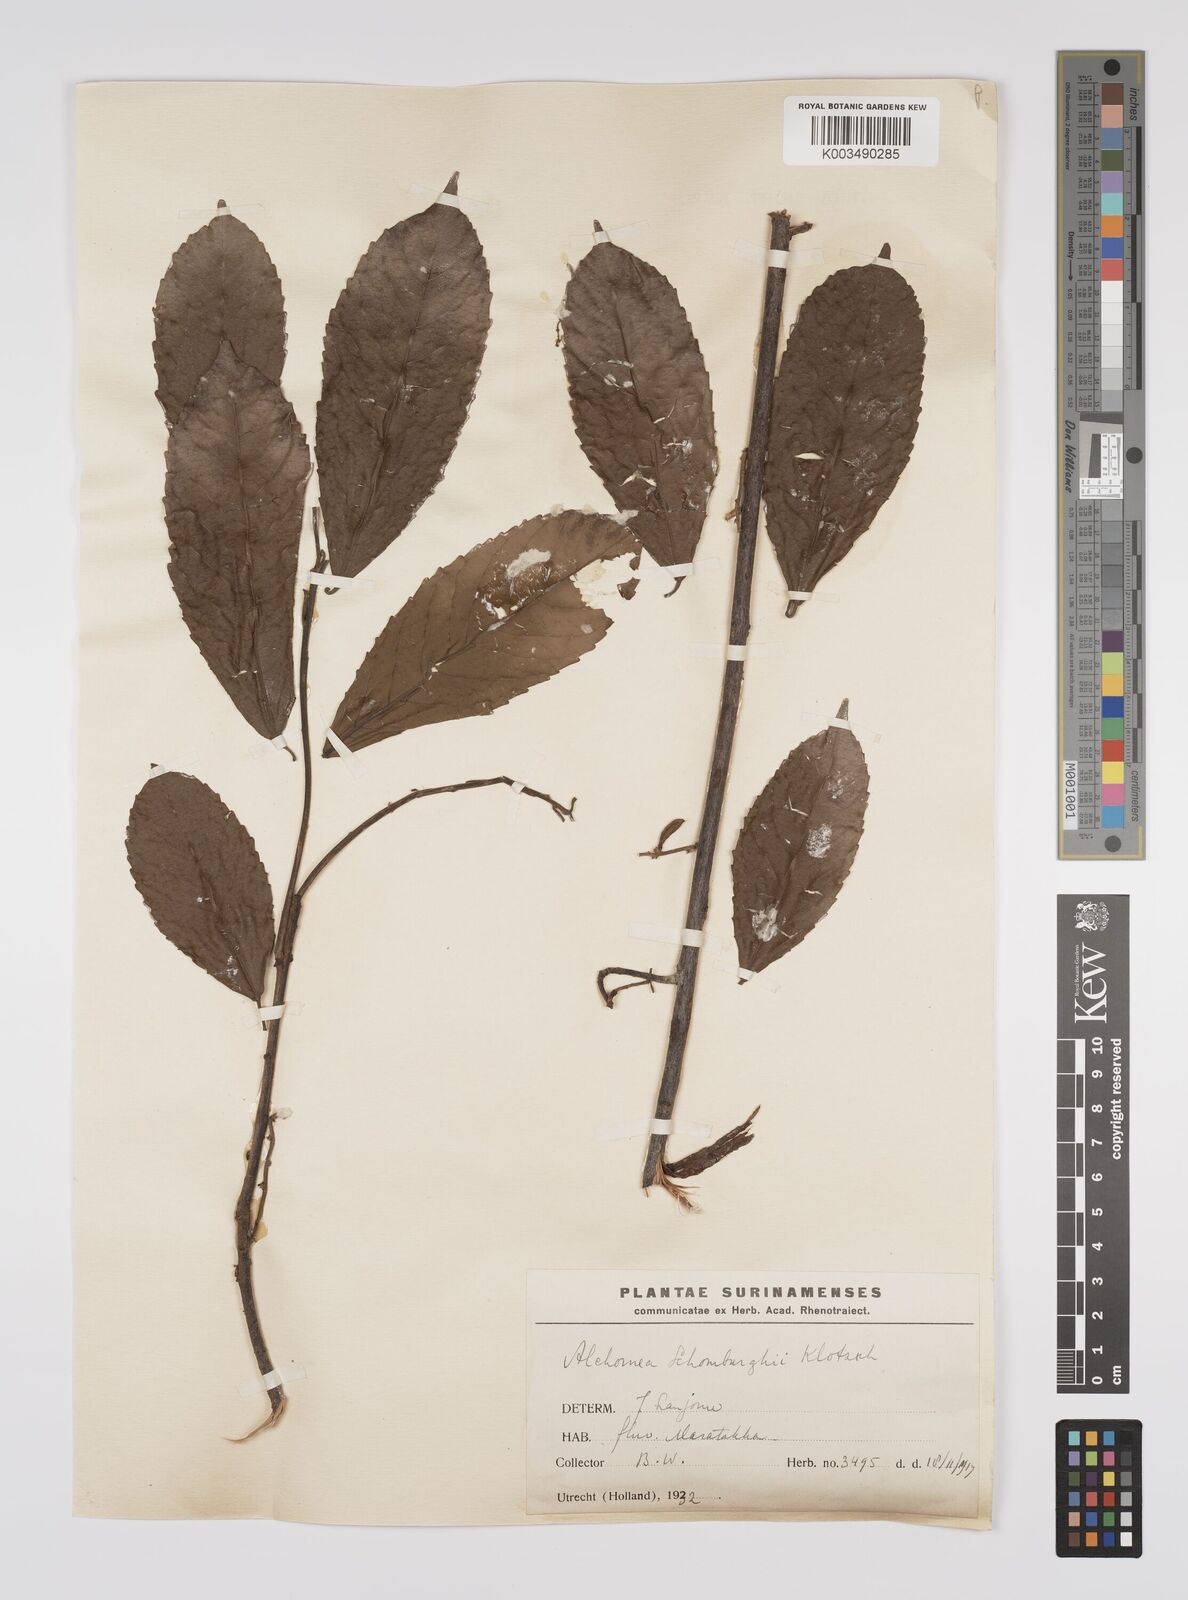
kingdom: Plantae
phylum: Tracheophyta
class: Magnoliopsida
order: Malpighiales
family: Euphorbiaceae
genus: Alchornea
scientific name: Alchornea discolor
